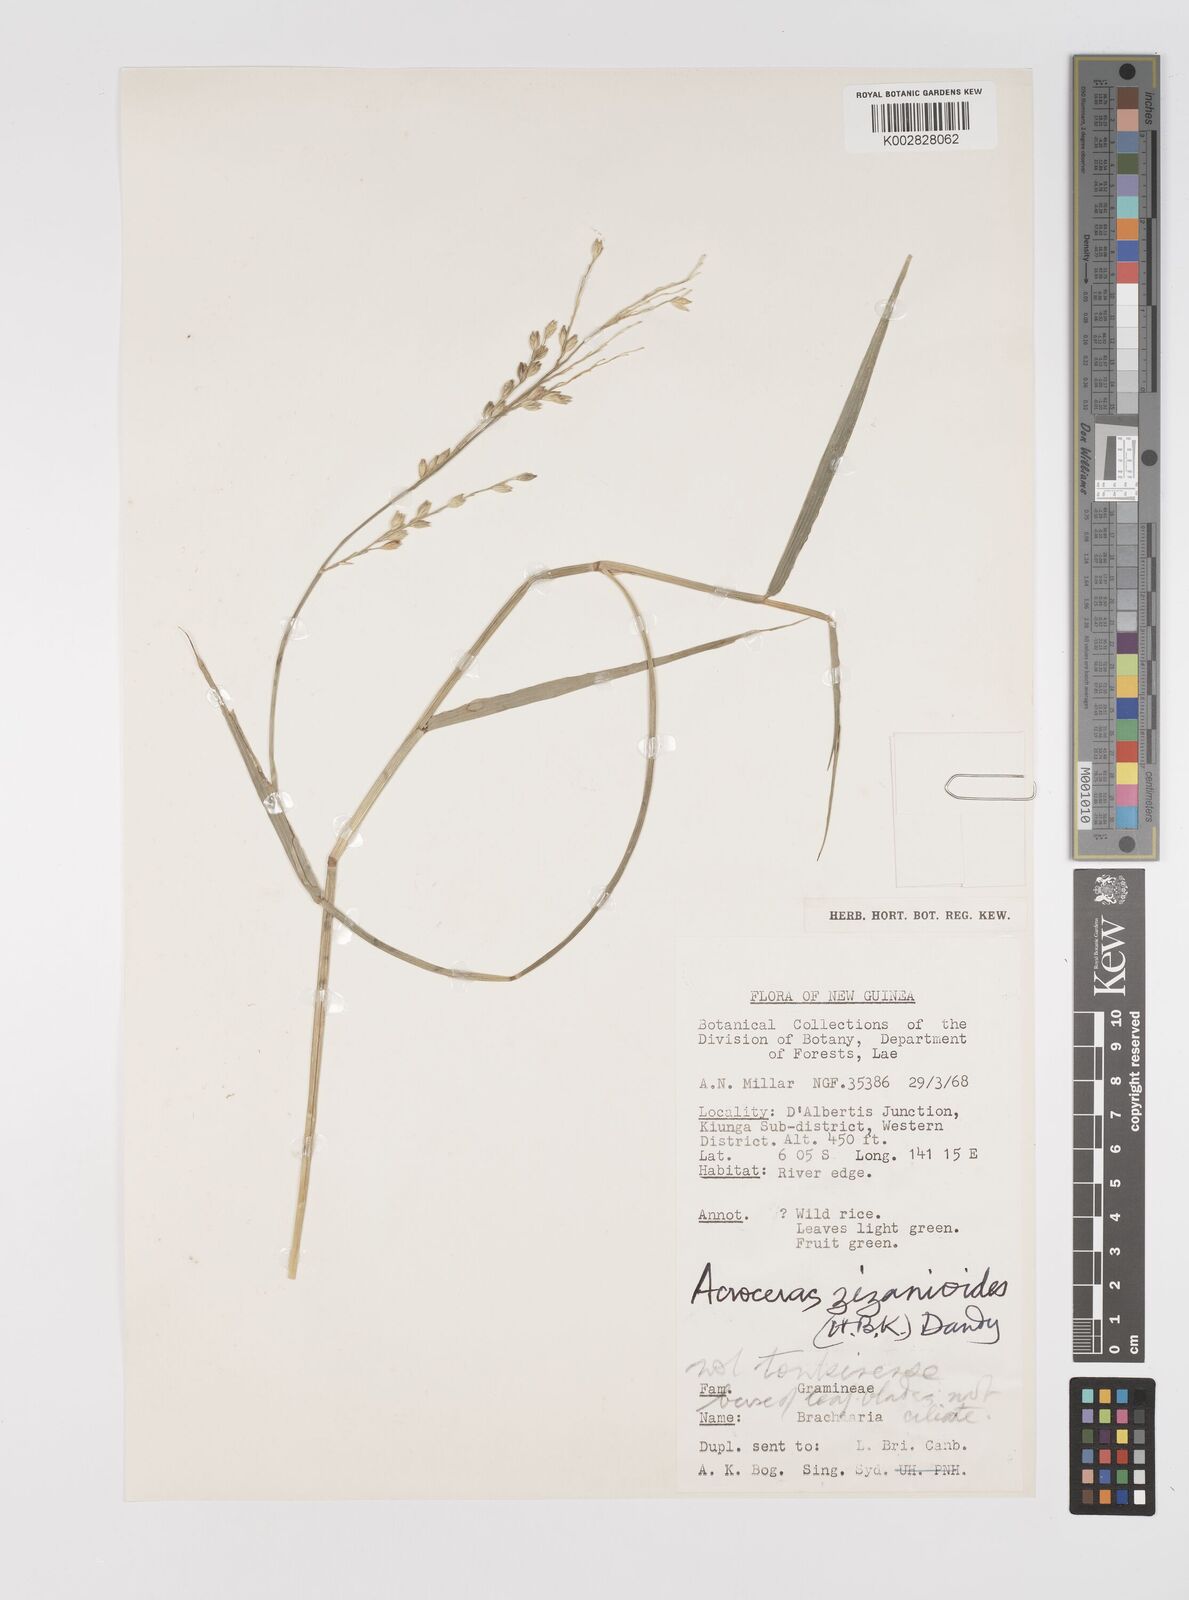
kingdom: Plantae
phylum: Tracheophyta
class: Liliopsida
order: Poales
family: Poaceae
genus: Acroceras
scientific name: Acroceras zizanioides
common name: Oat grass
